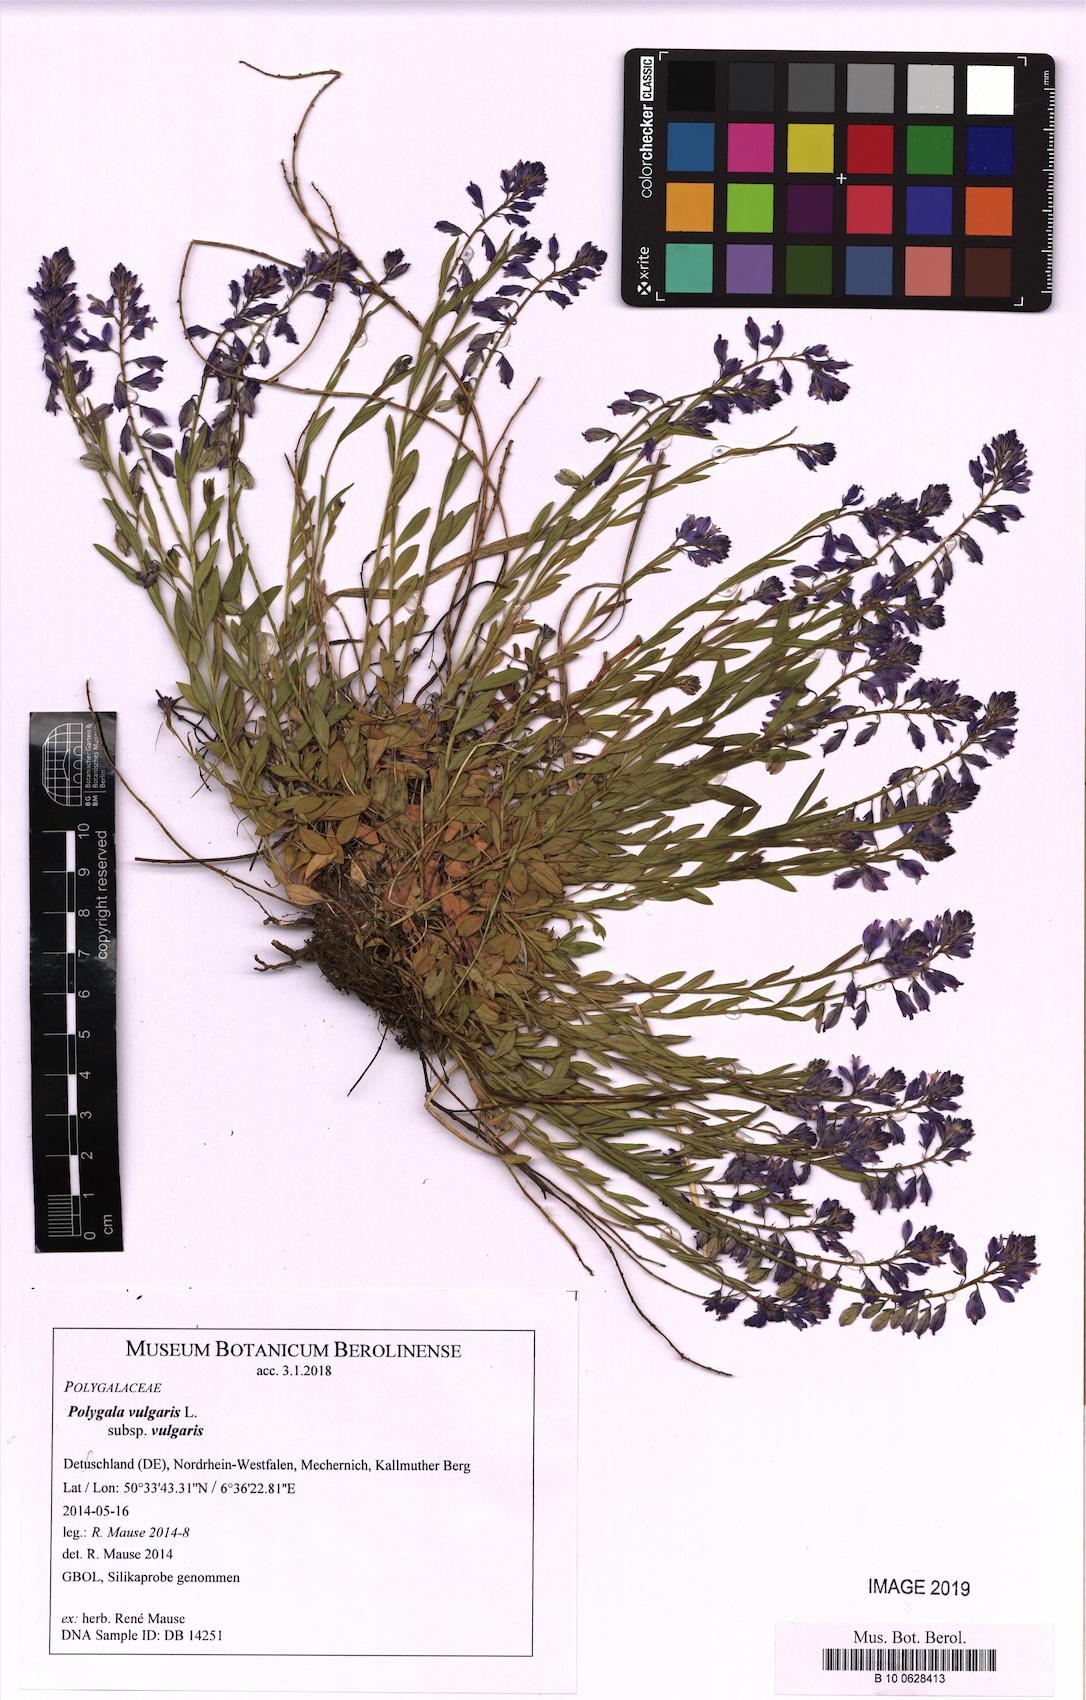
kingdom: Plantae
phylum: Tracheophyta
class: Magnoliopsida
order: Fabales
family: Polygalaceae
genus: Polygala
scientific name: Polygala vulgaris
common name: Common milkwort
